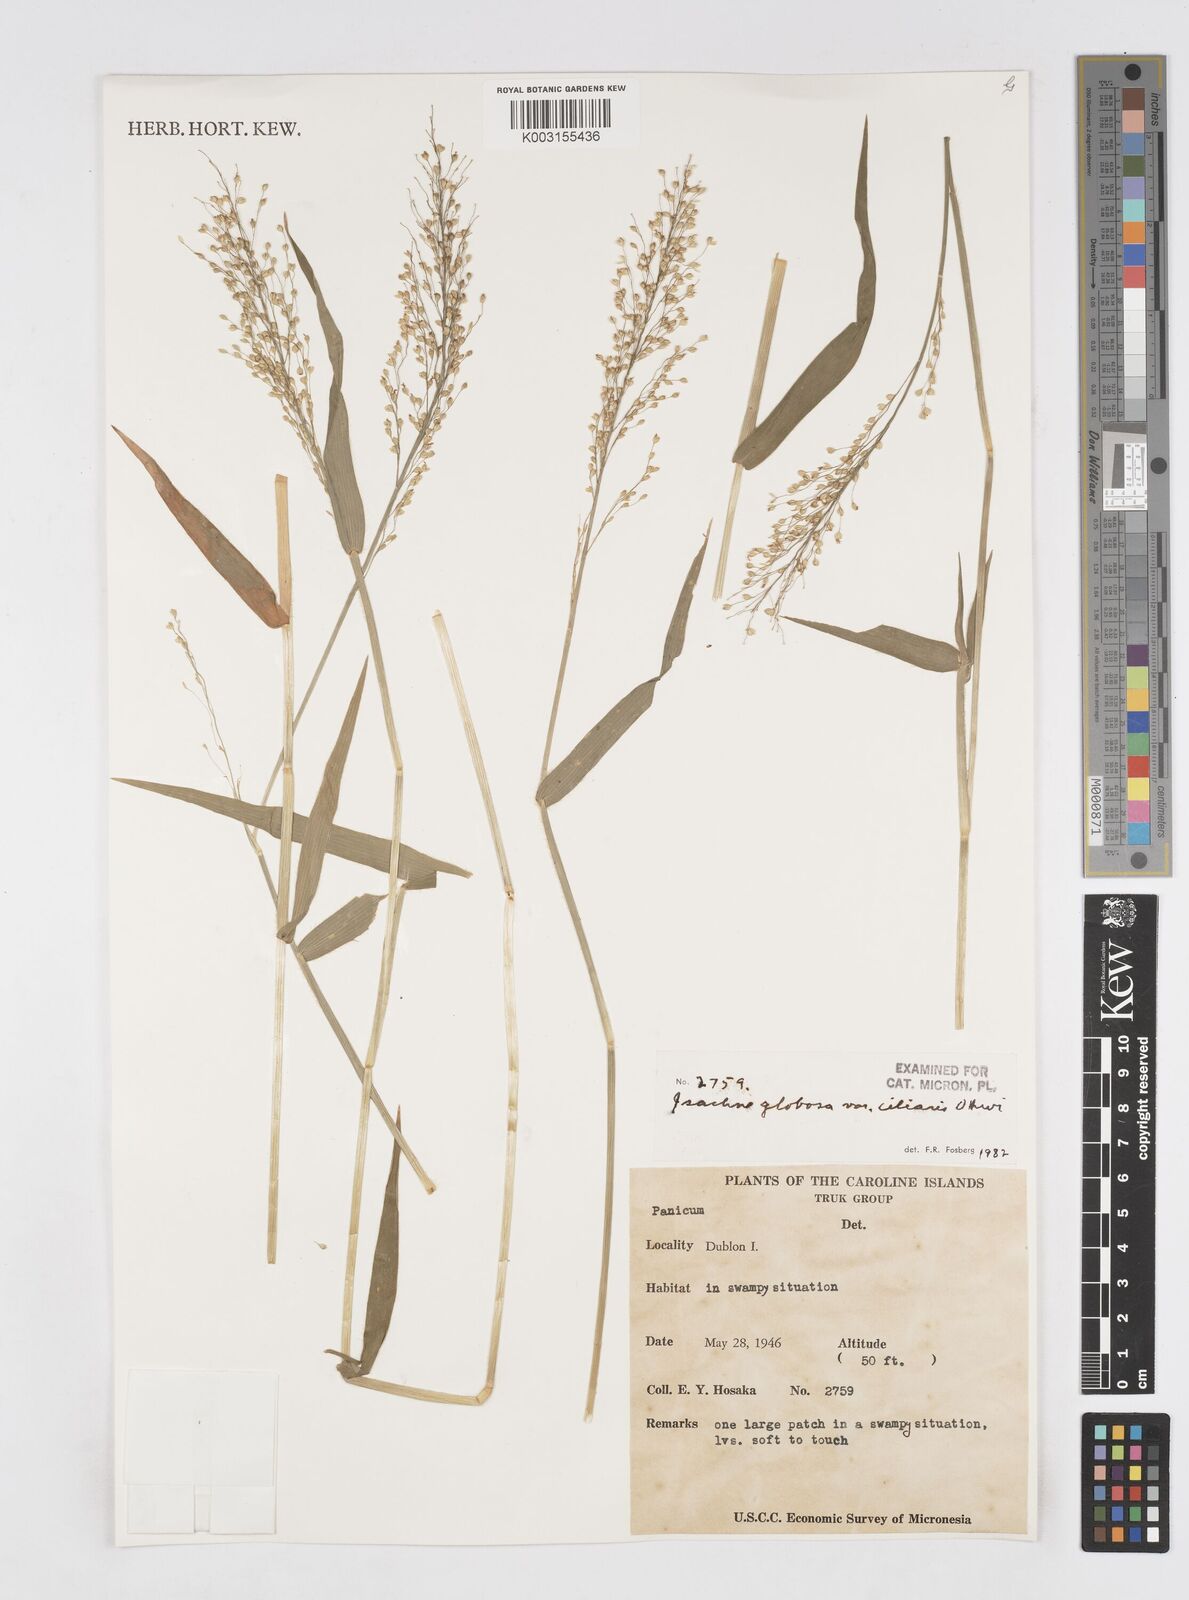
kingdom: Plantae
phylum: Tracheophyta
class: Liliopsida
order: Poales
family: Poaceae
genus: Isachne
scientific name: Isachne globosa
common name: Swamp millet
